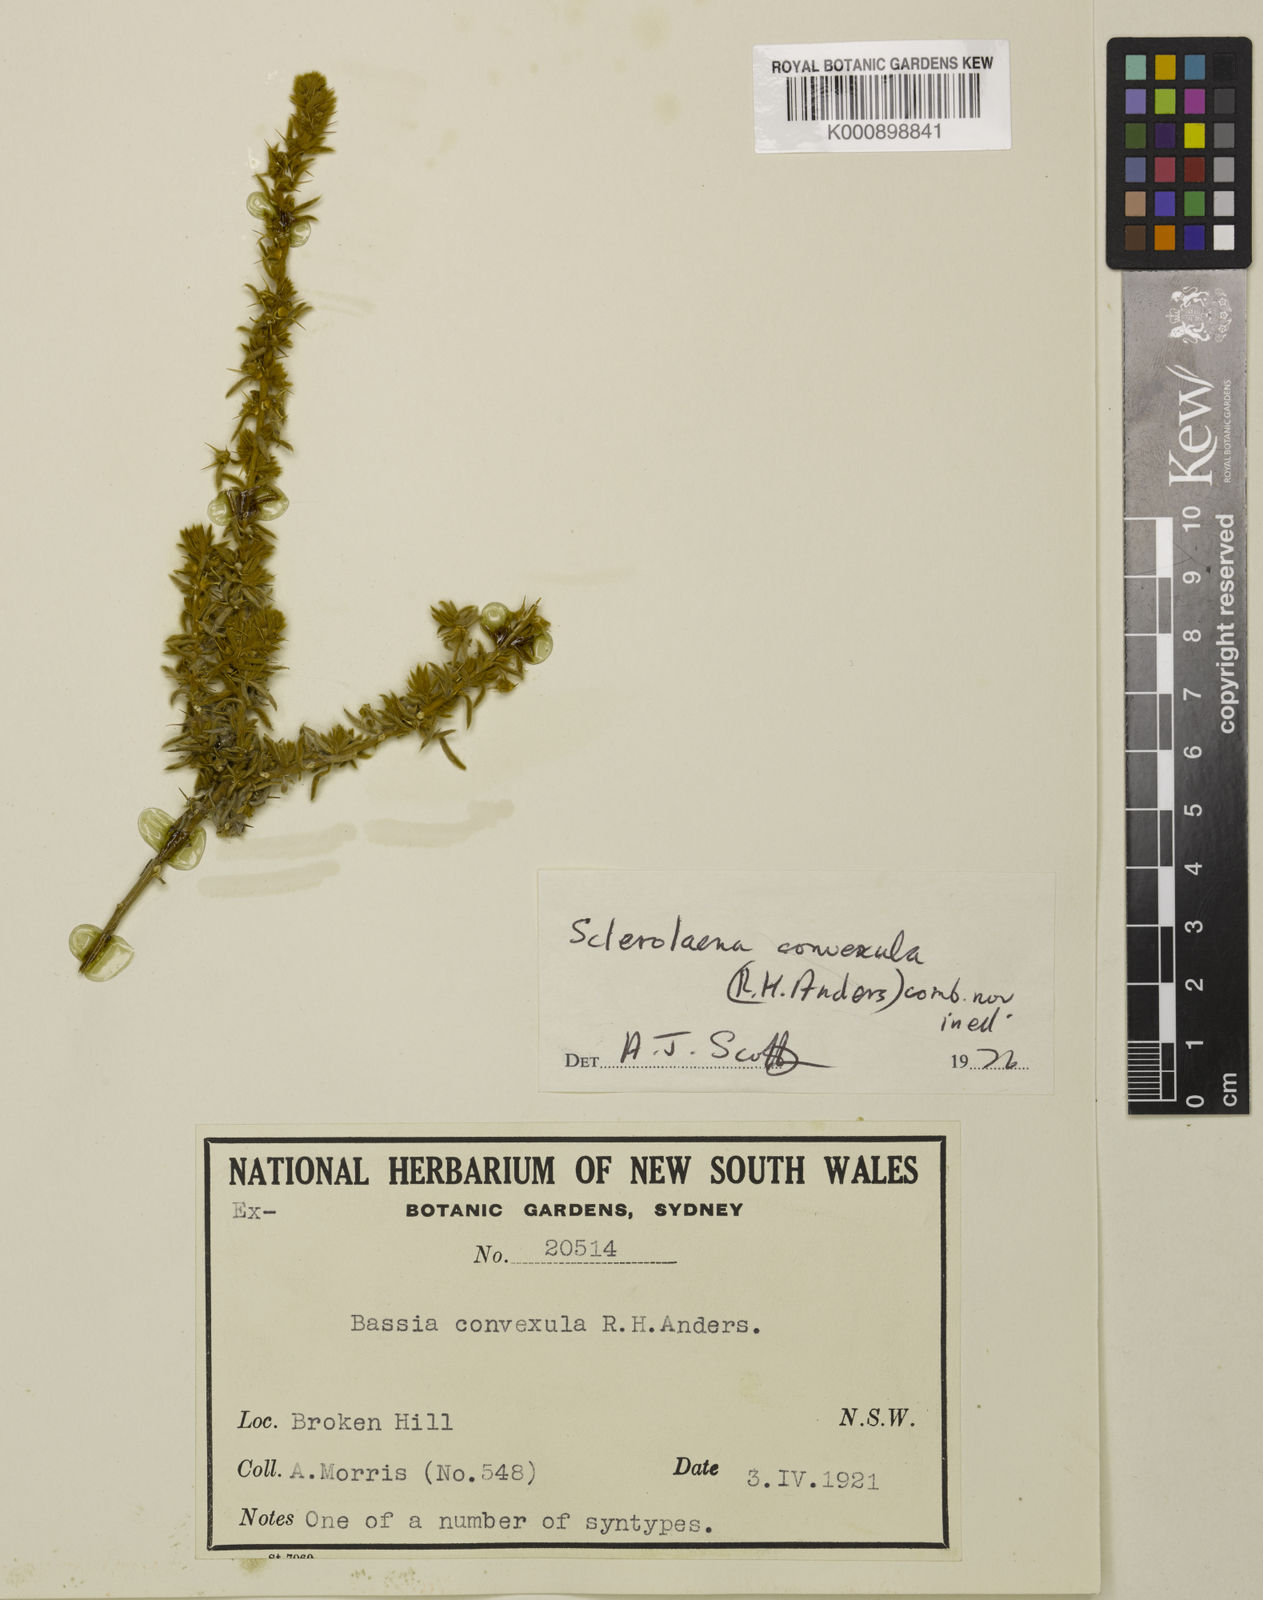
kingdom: Plantae
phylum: Tracheophyta
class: Magnoliopsida
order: Caryophyllales
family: Amaranthaceae
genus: Sclerolaena
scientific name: Sclerolaena convexula
